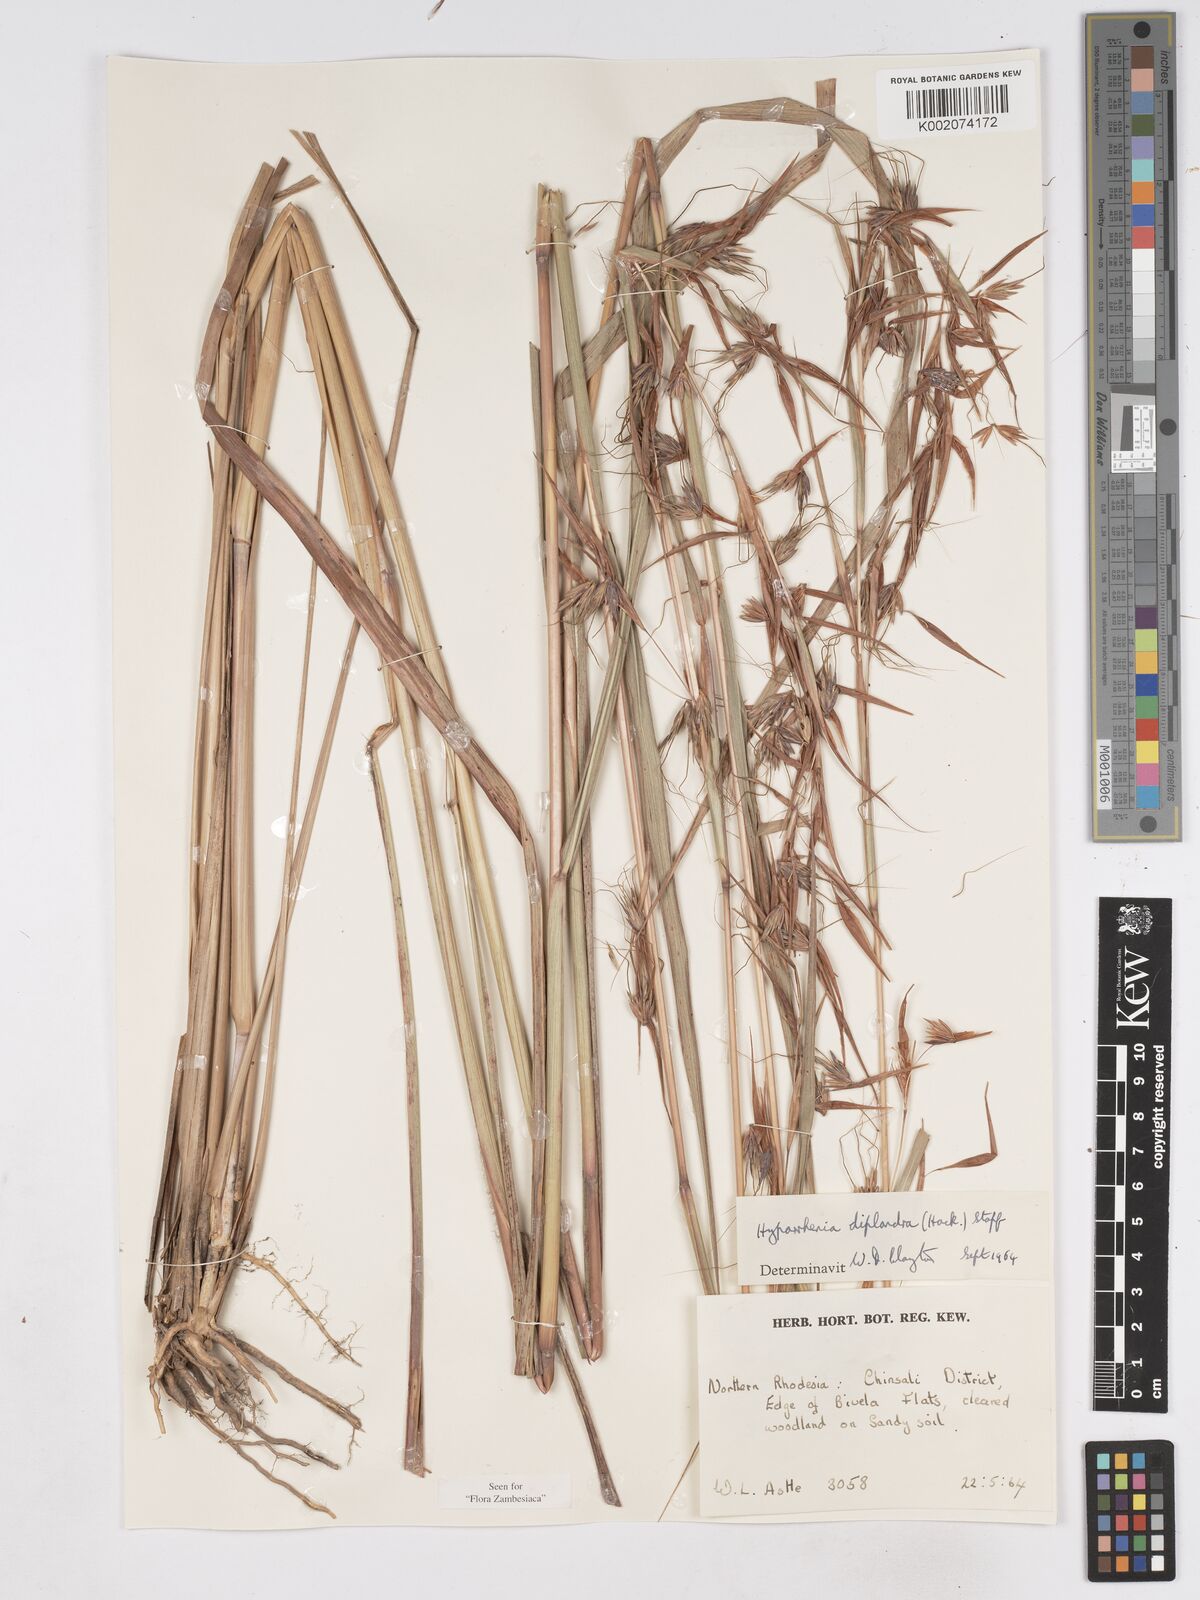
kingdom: Plantae
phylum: Tracheophyta
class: Liliopsida
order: Poales
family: Poaceae
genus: Hyparrhenia
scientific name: Hyparrhenia diplandra
